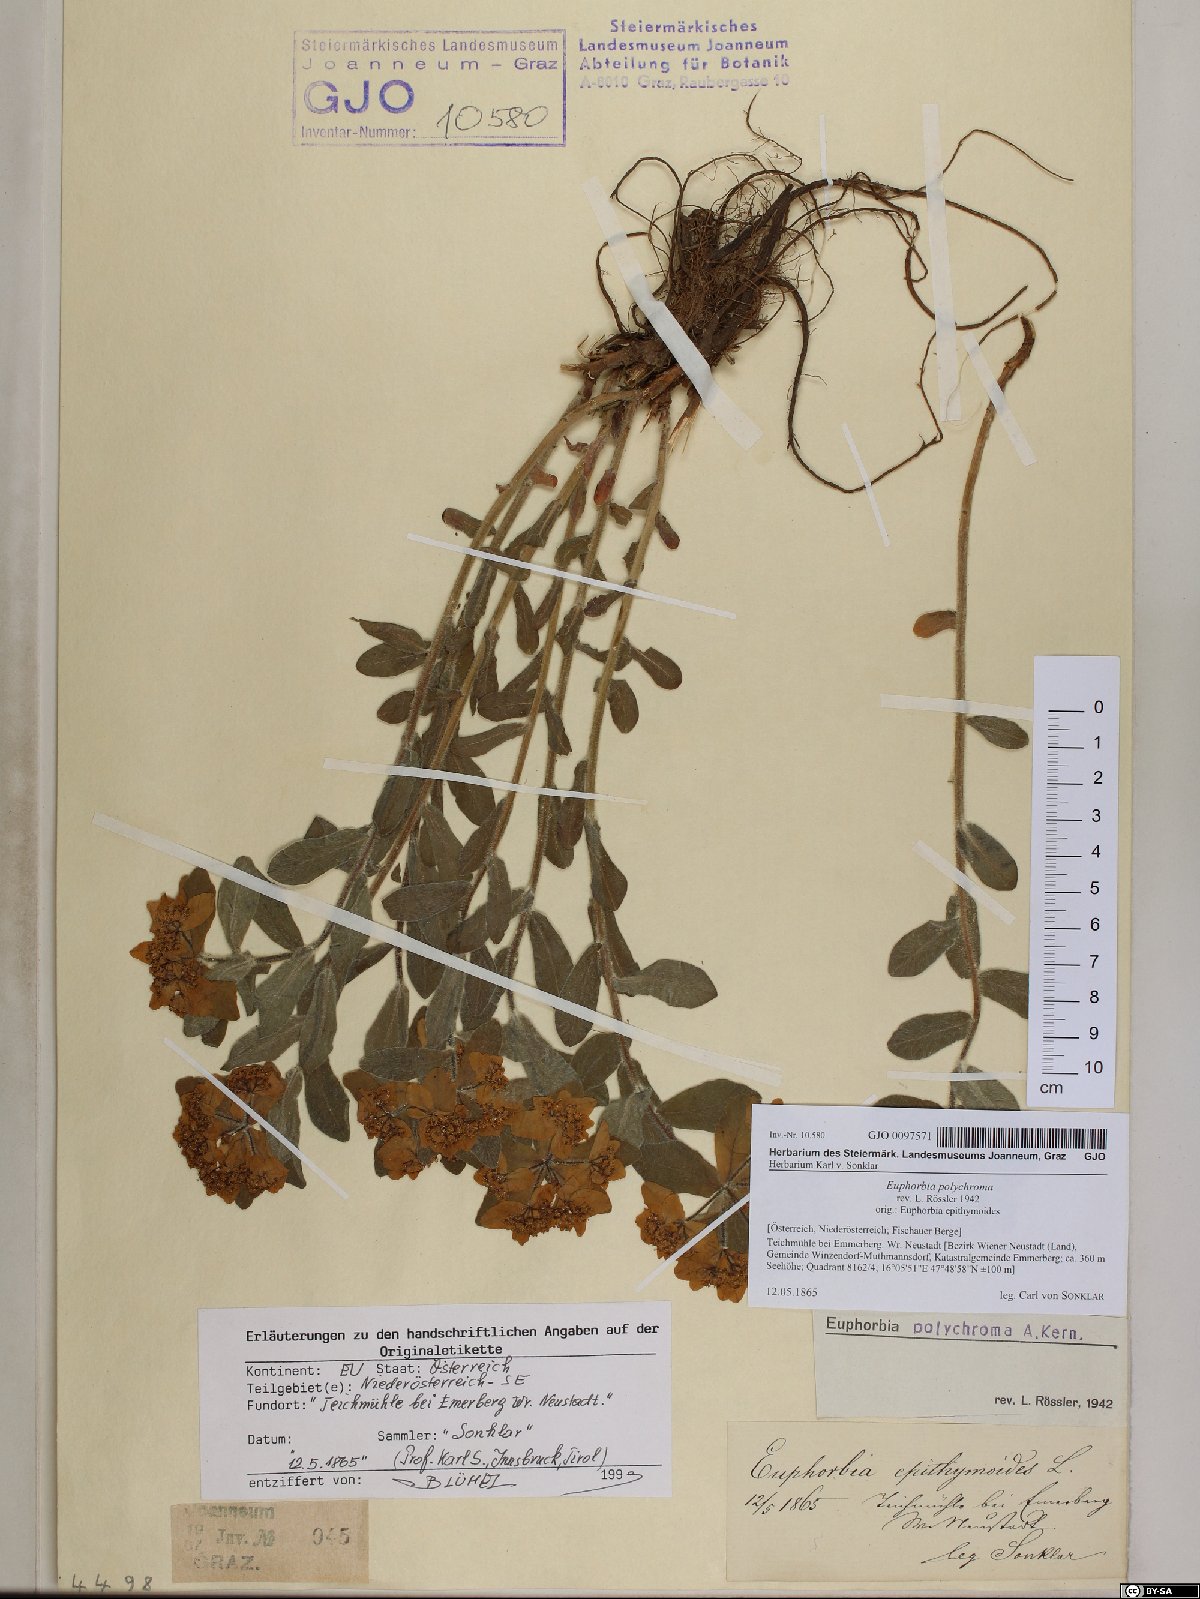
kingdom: Plantae
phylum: Tracheophyta
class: Magnoliopsida
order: Malpighiales
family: Euphorbiaceae
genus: Euphorbia
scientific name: Euphorbia epithymoides
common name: Cushion spurge
